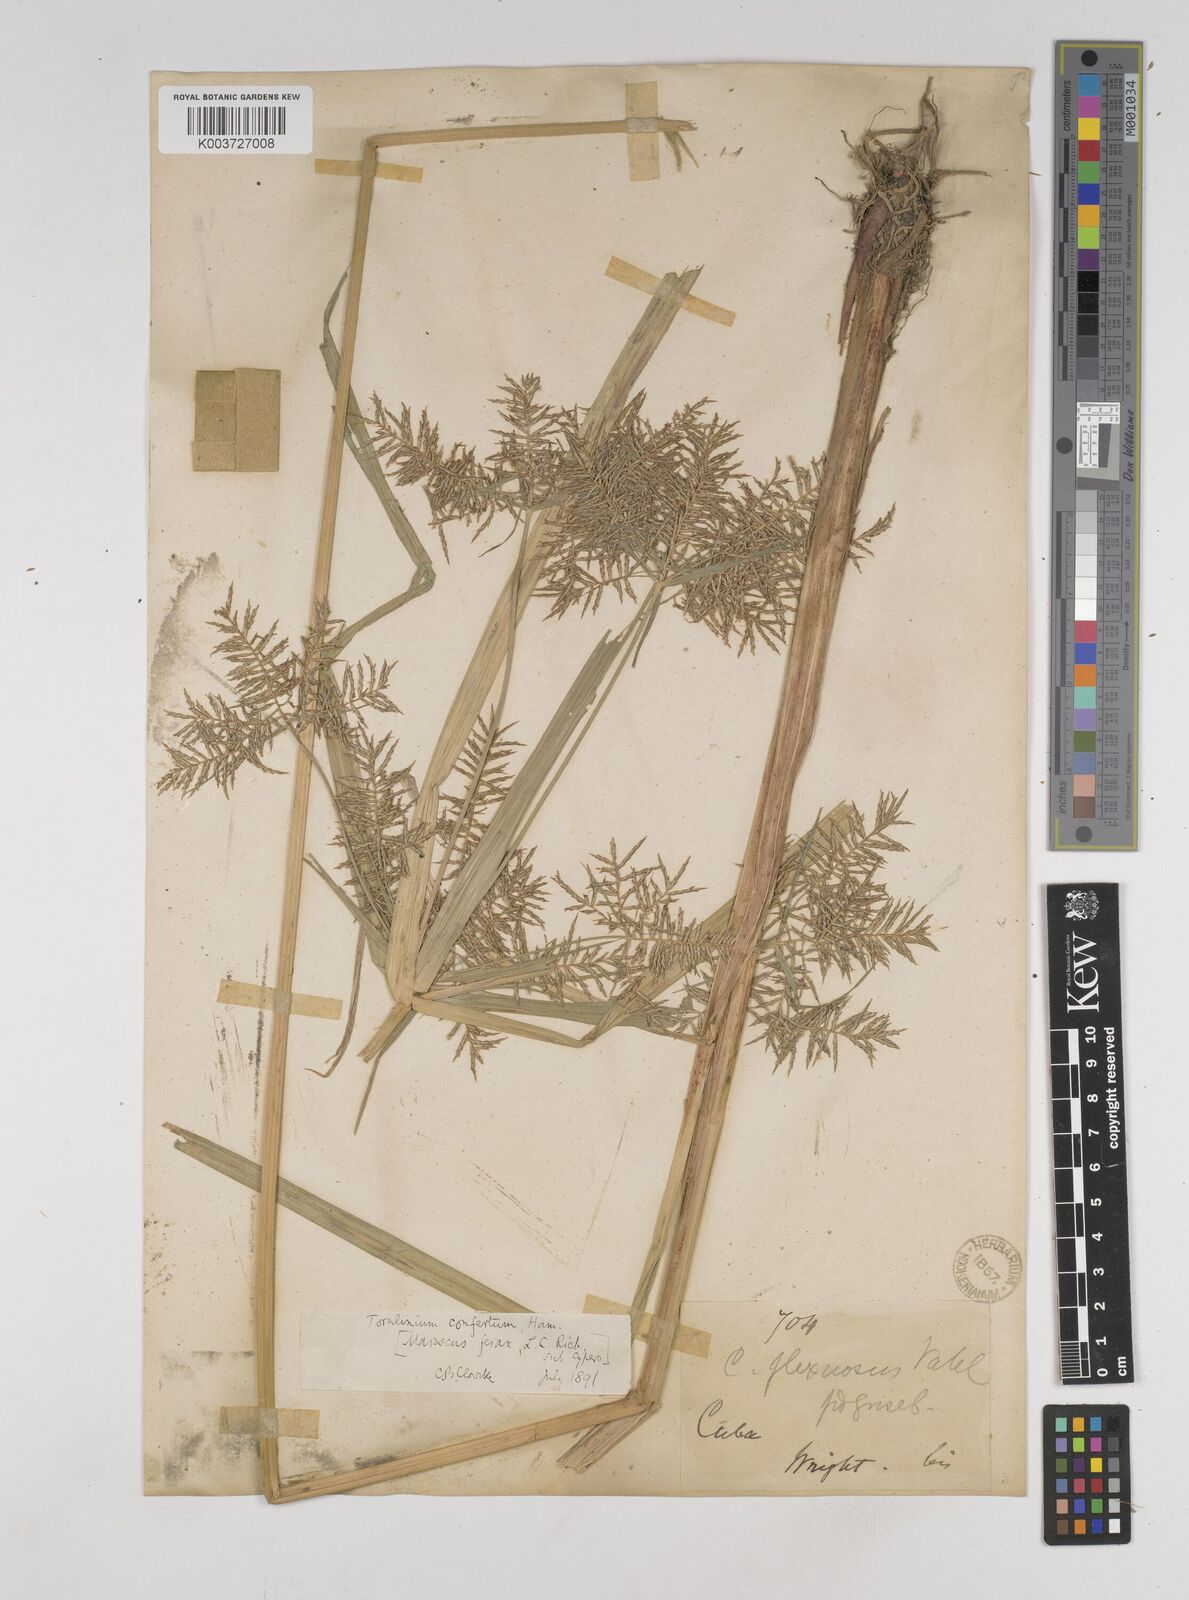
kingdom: Plantae
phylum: Tracheophyta
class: Liliopsida
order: Poales
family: Cyperaceae
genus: Cyperus
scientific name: Cyperus odoratus
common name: Fragrant flatsedge
